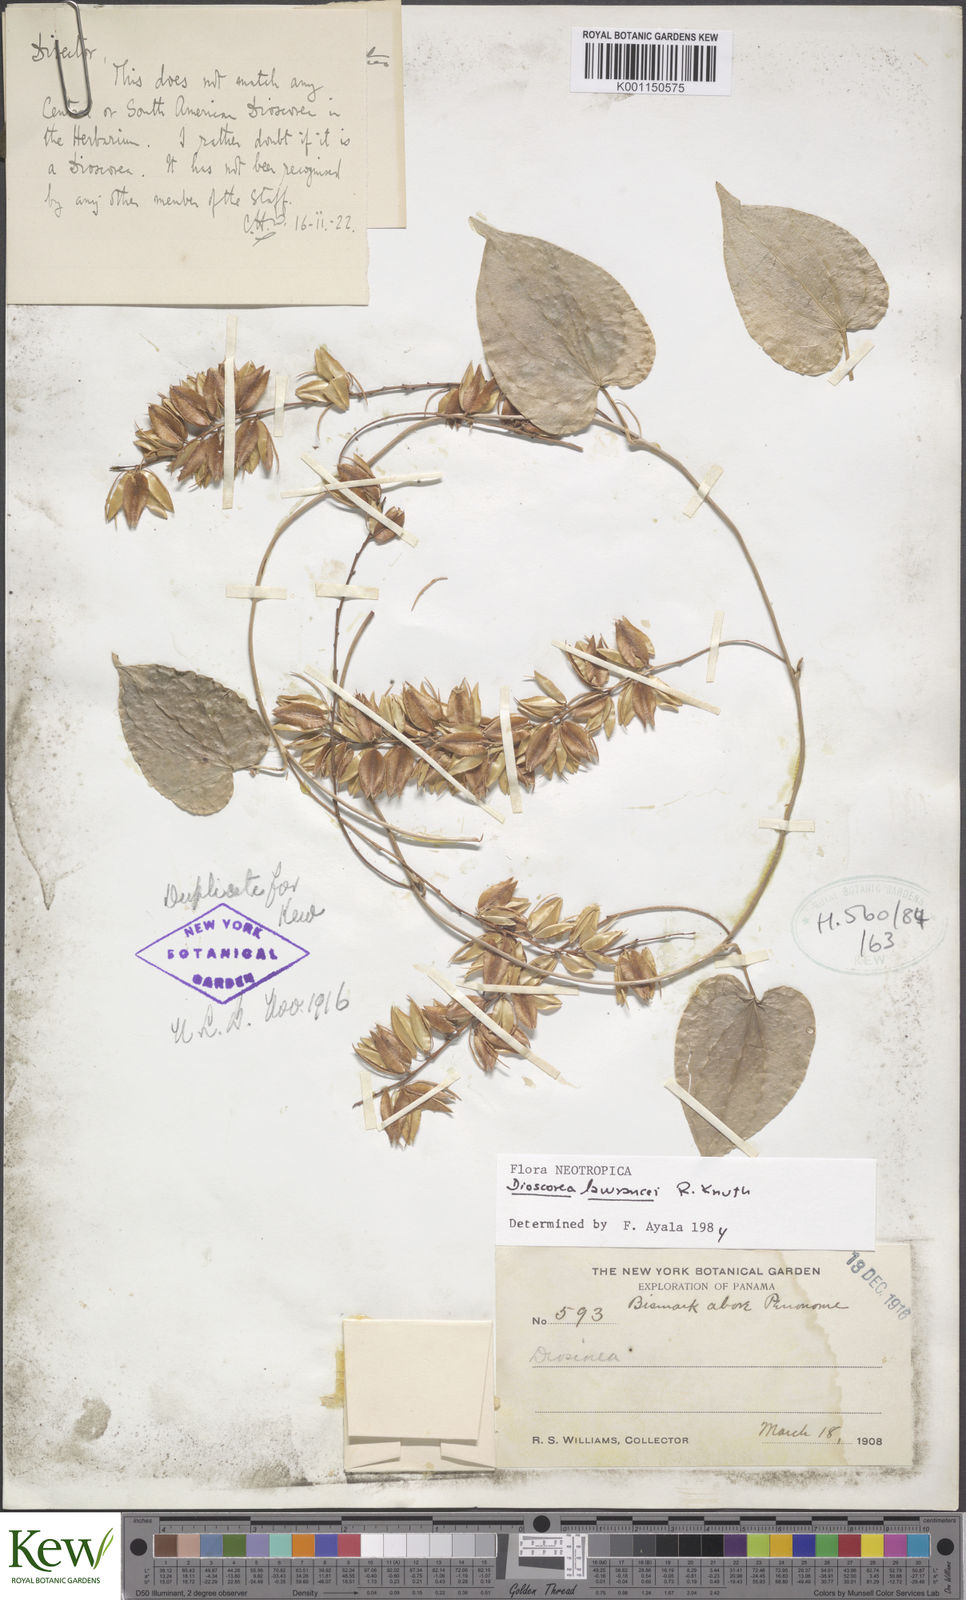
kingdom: Plantae
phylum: Tracheophyta
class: Liliopsida
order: Dioscoreales
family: Dioscoreaceae
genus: Dioscorea
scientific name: Dioscorea lawrancei
